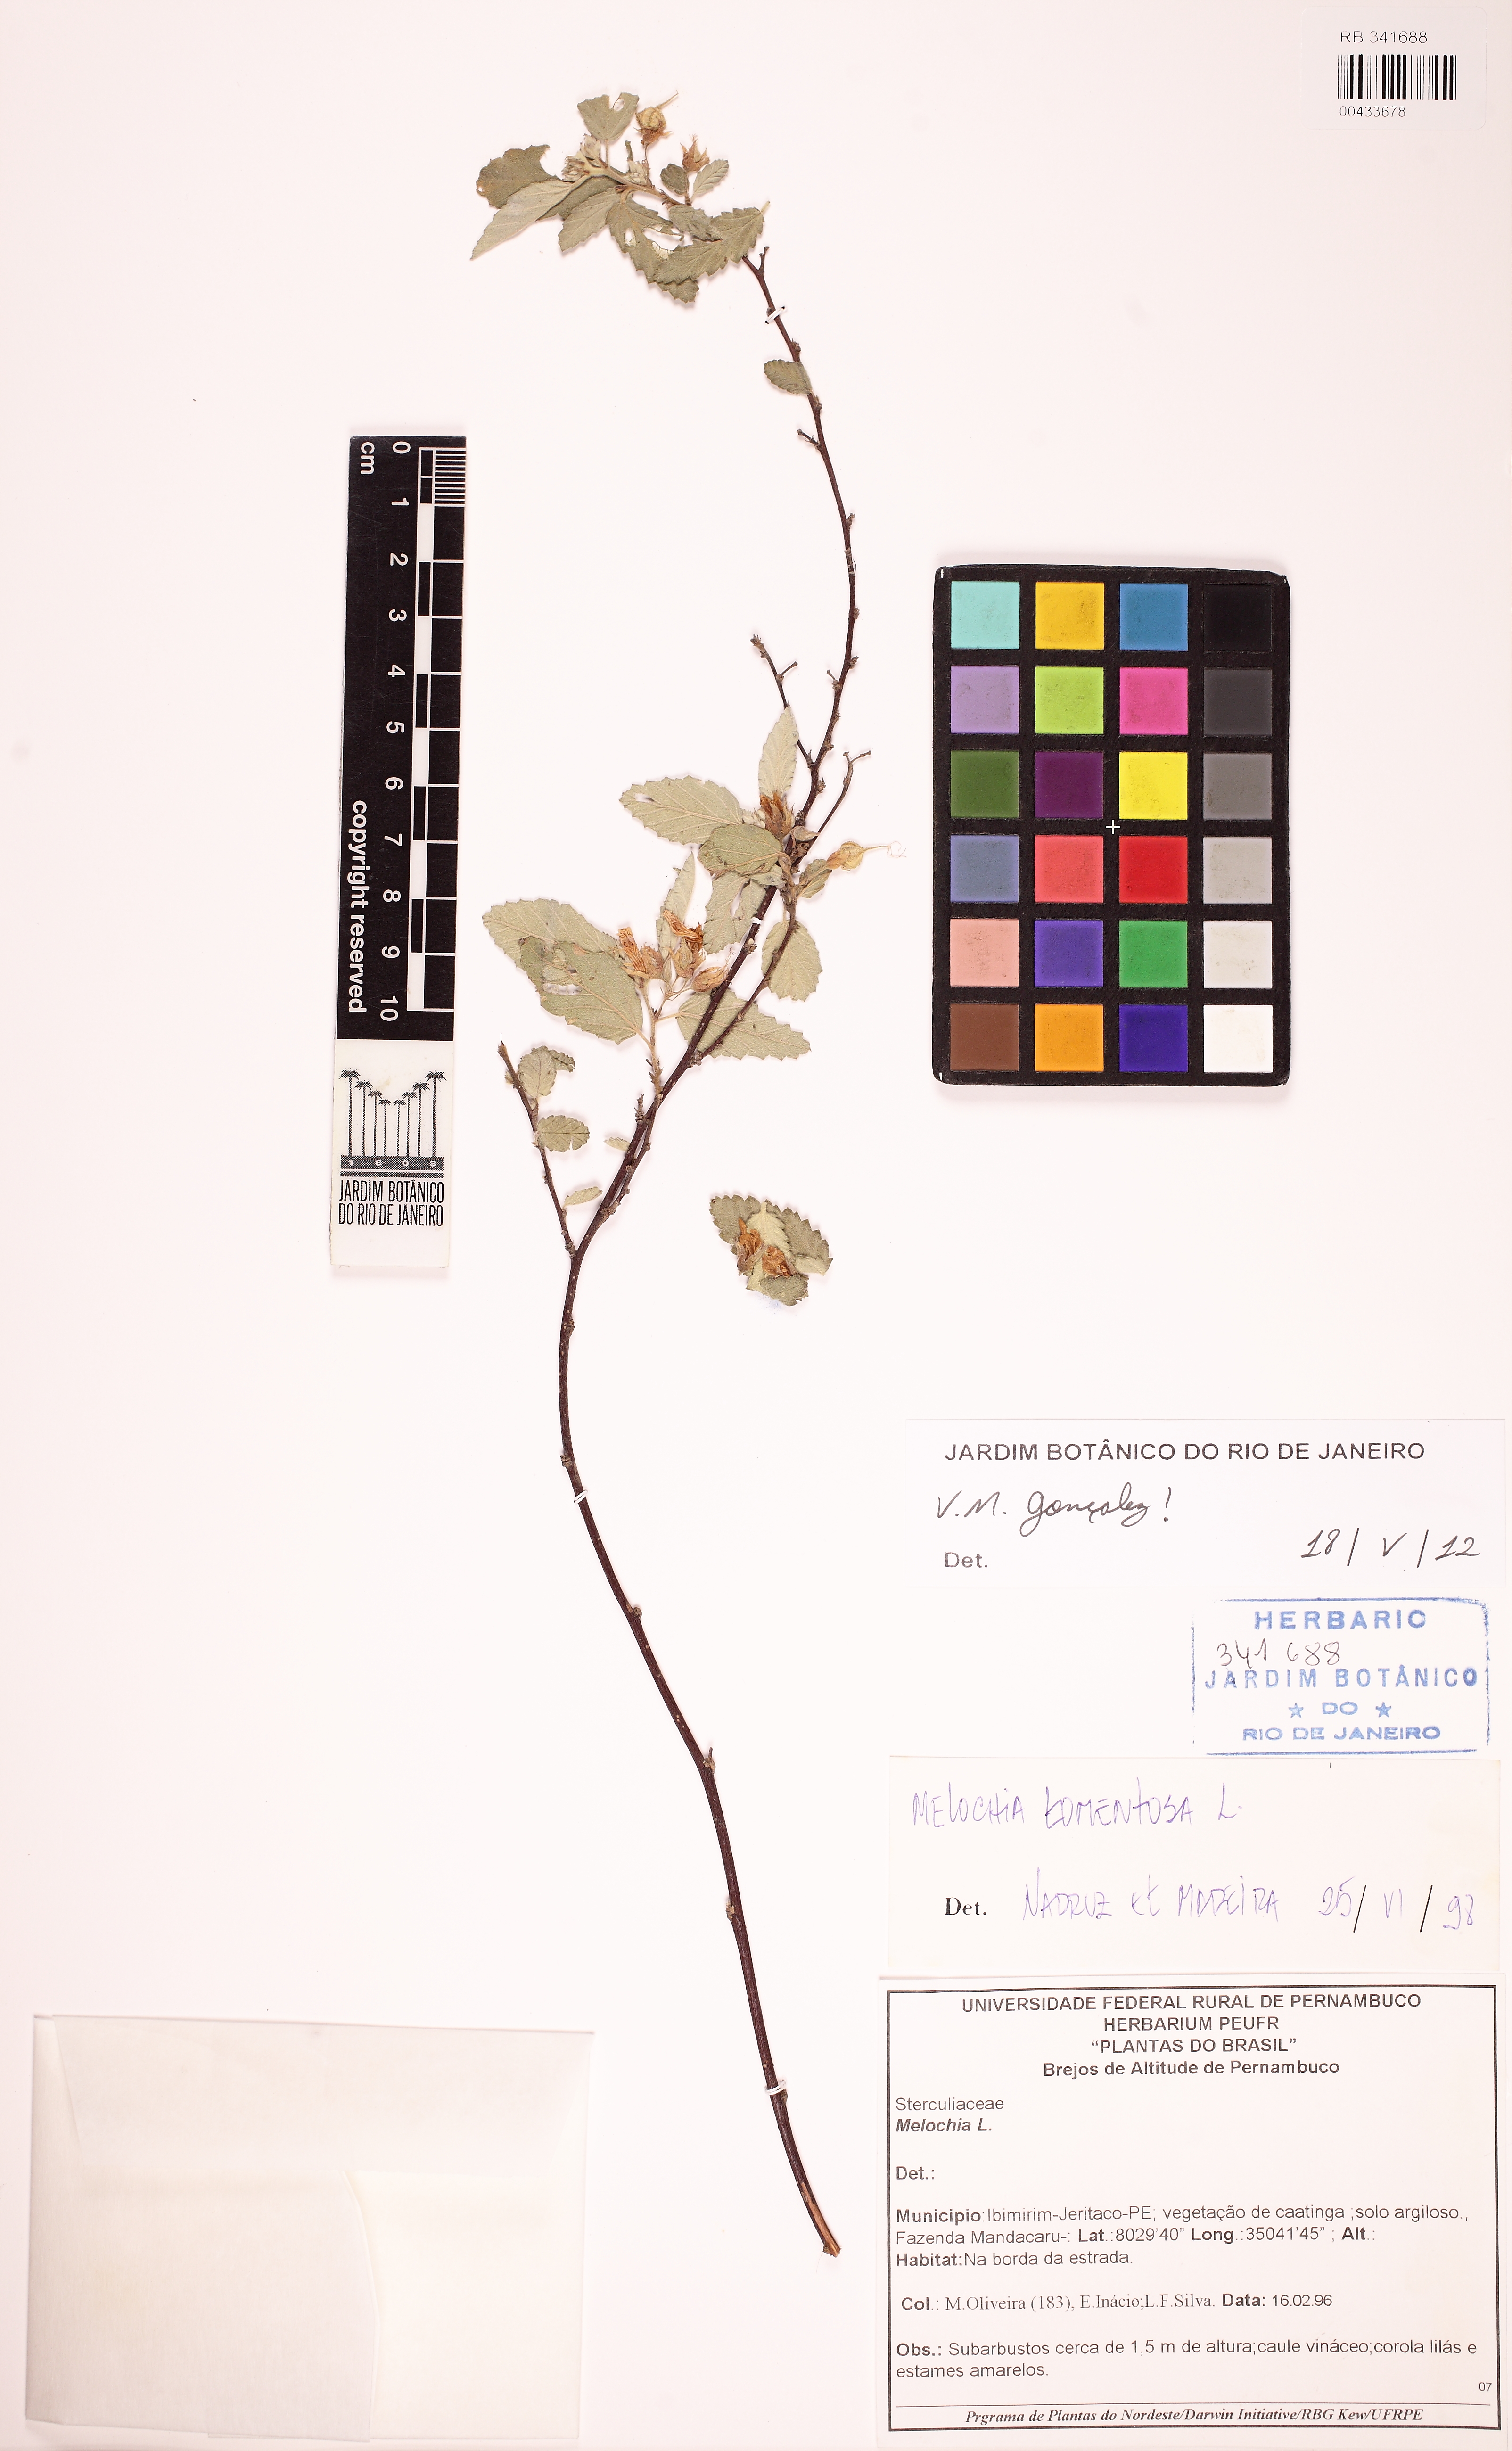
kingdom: Plantae
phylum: Tracheophyta
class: Magnoliopsida
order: Malvales
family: Malvaceae
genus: Melochia
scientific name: Melochia tomentosa
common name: Black torch
